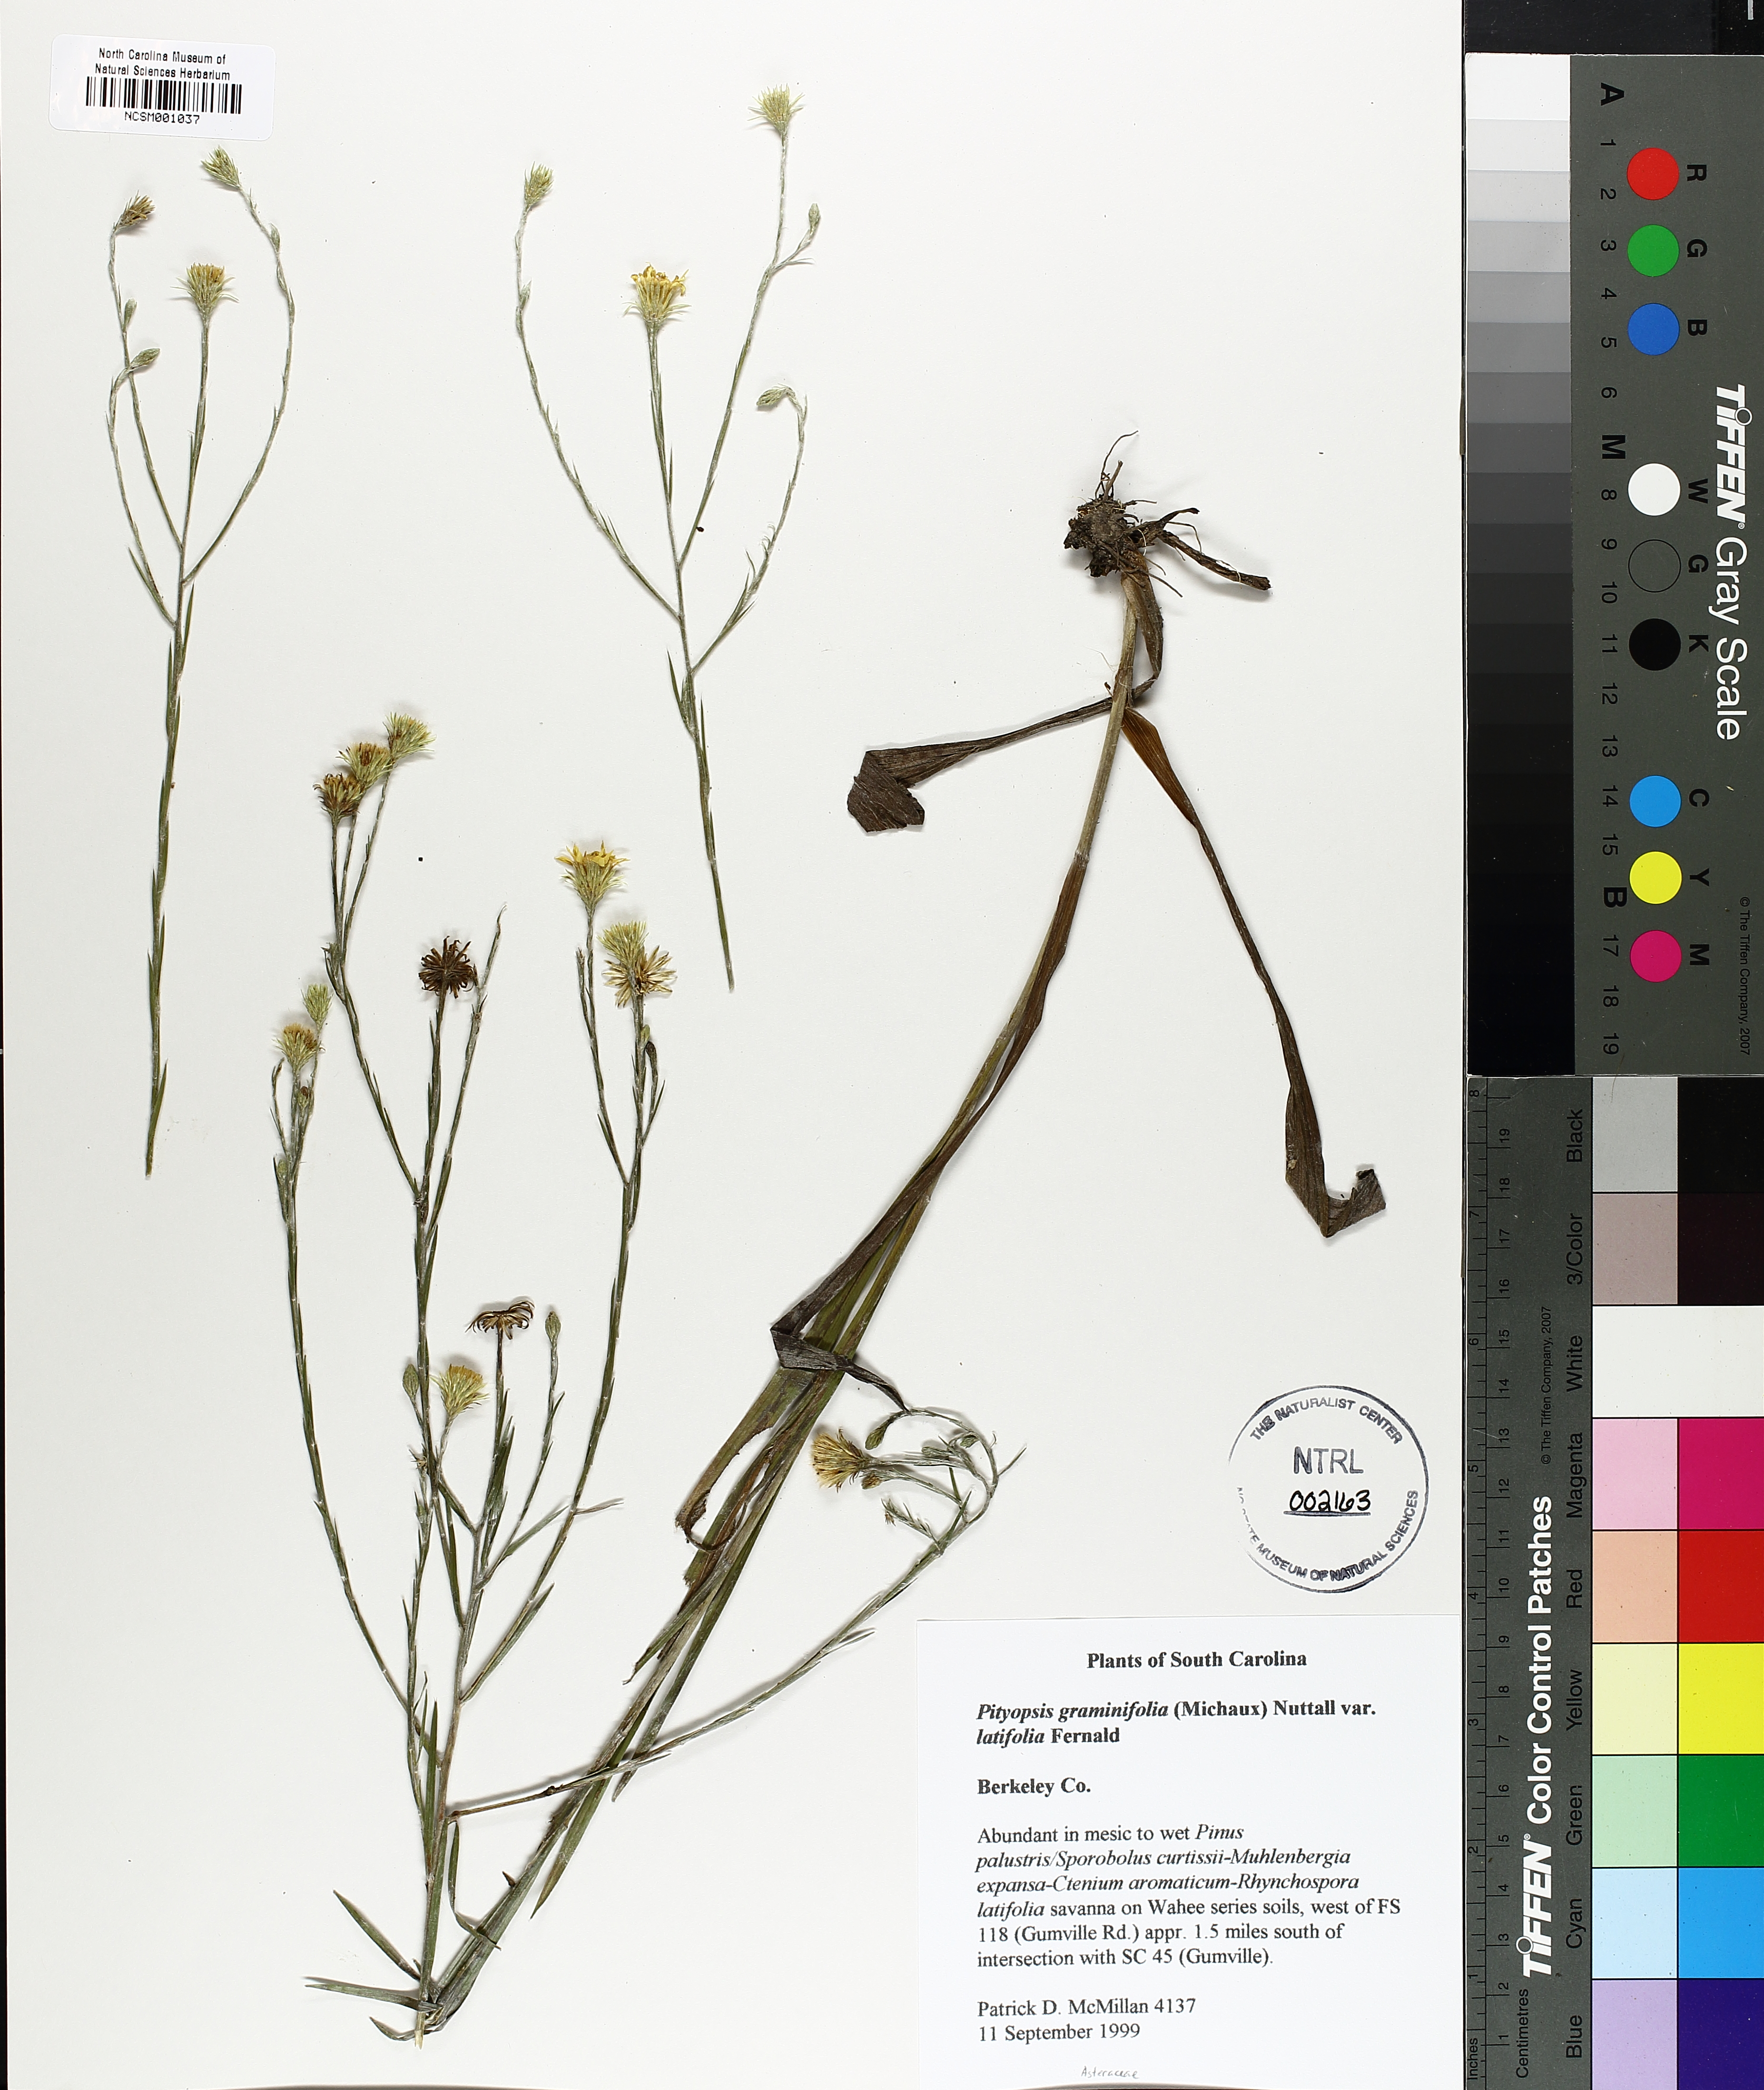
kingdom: Plantae
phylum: Tracheophyta
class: Magnoliopsida
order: Asterales
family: Asteraceae
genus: Pityopsis
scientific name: Pityopsis latifolia
